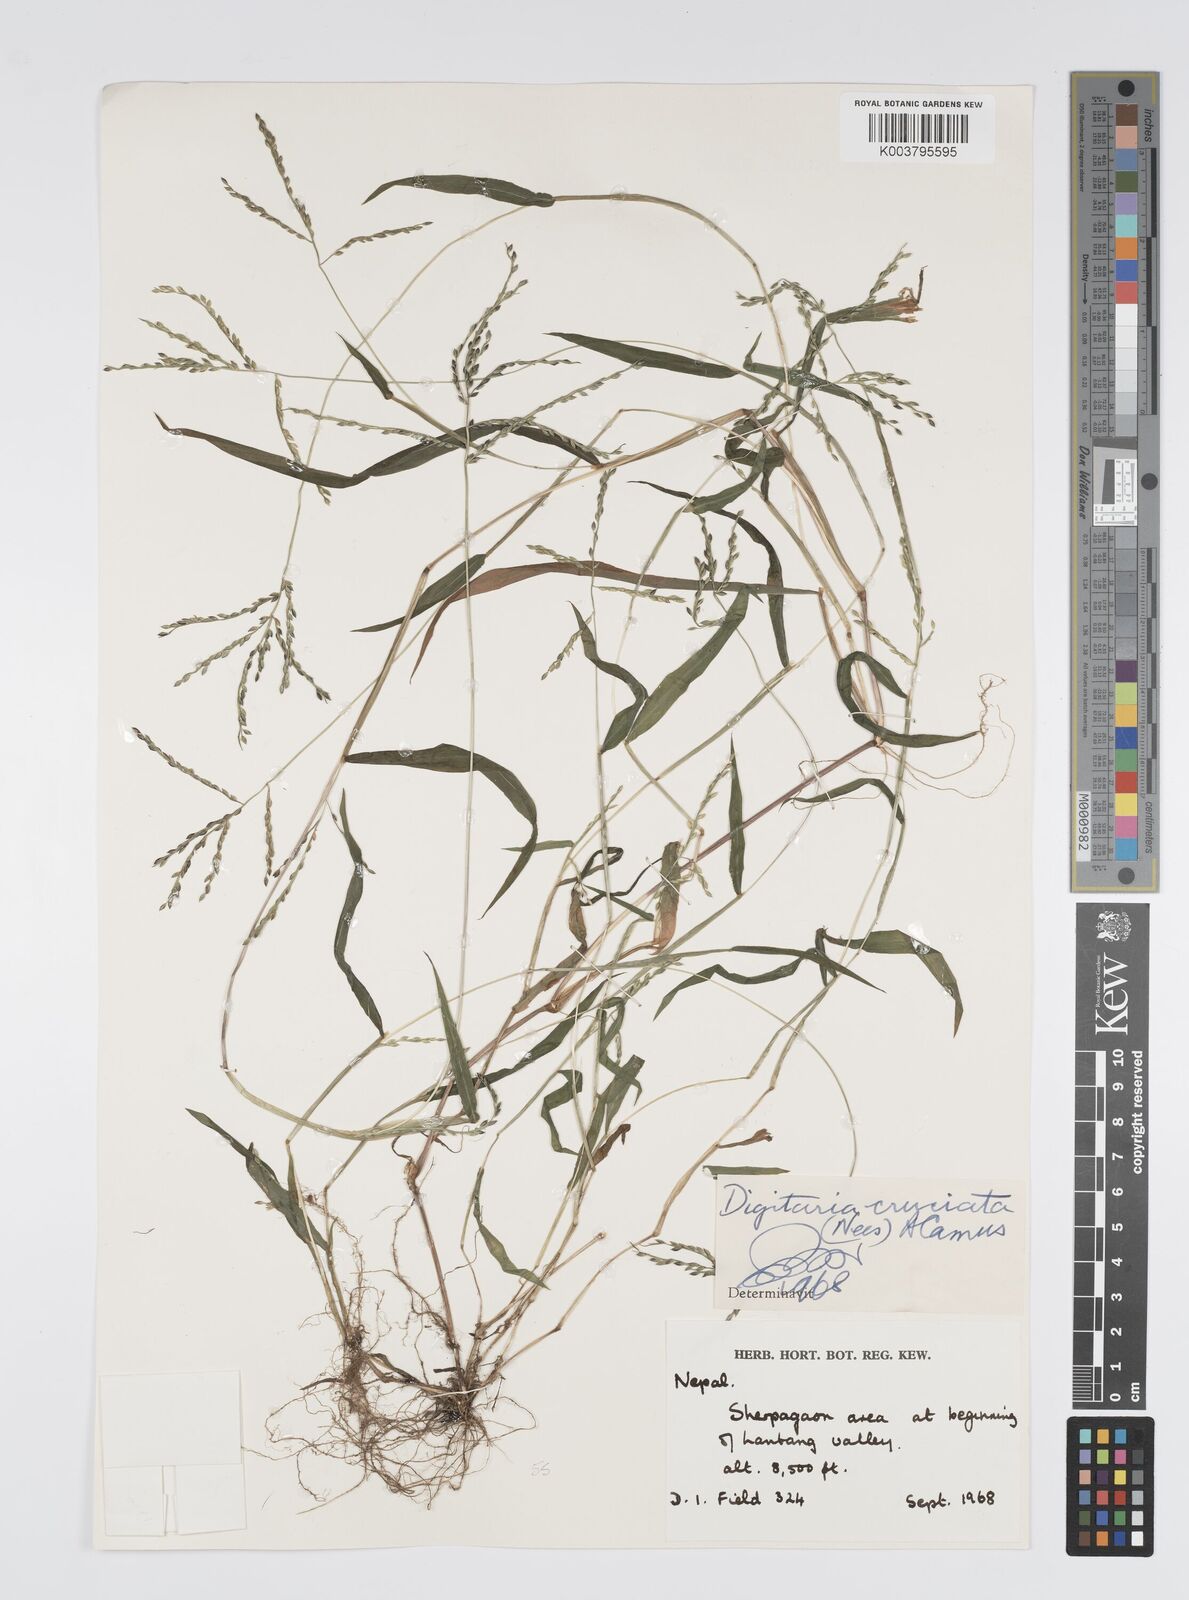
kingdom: Plantae
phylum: Tracheophyta
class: Liliopsida
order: Poales
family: Poaceae
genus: Digitaria
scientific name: Digitaria sanguinalis
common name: Hairy crabgrass
